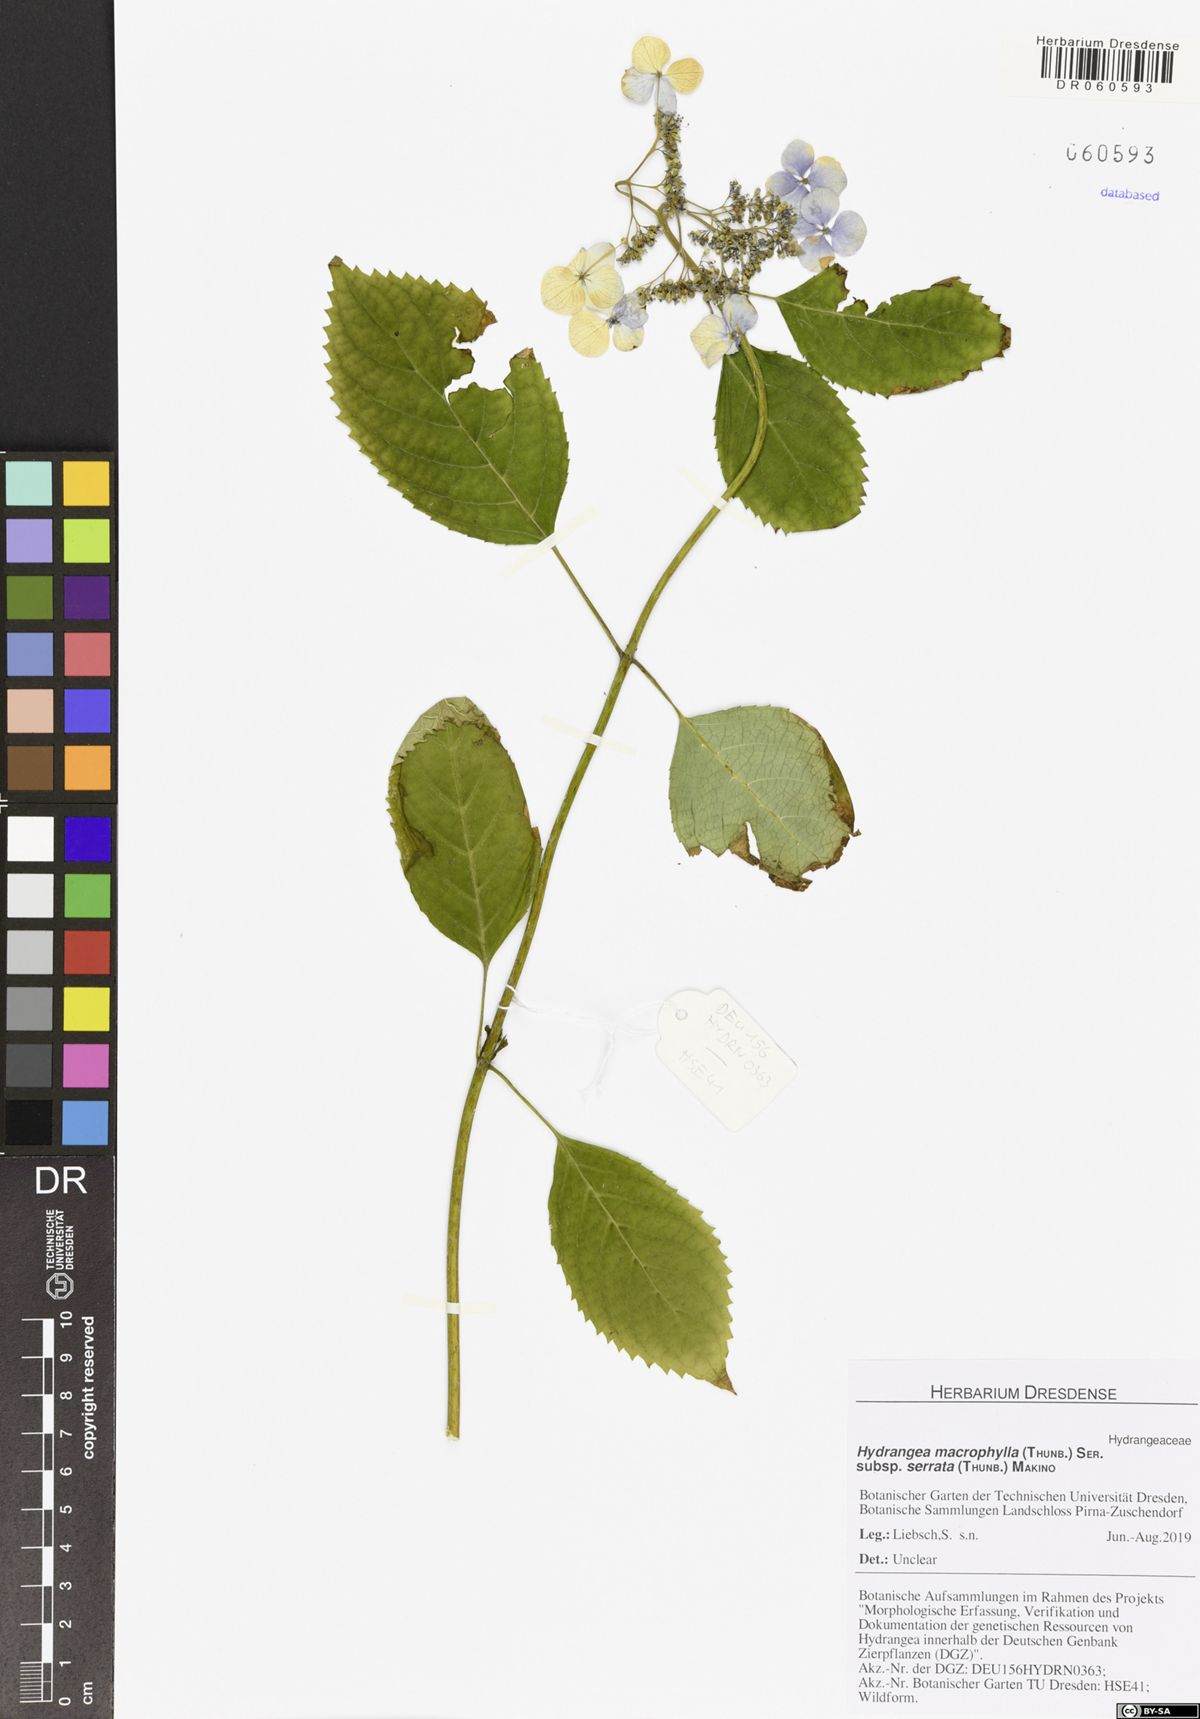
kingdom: Plantae
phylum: Tracheophyta
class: Magnoliopsida
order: Cornales
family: Hydrangeaceae
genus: Hydrangea
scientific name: Hydrangea serrata
